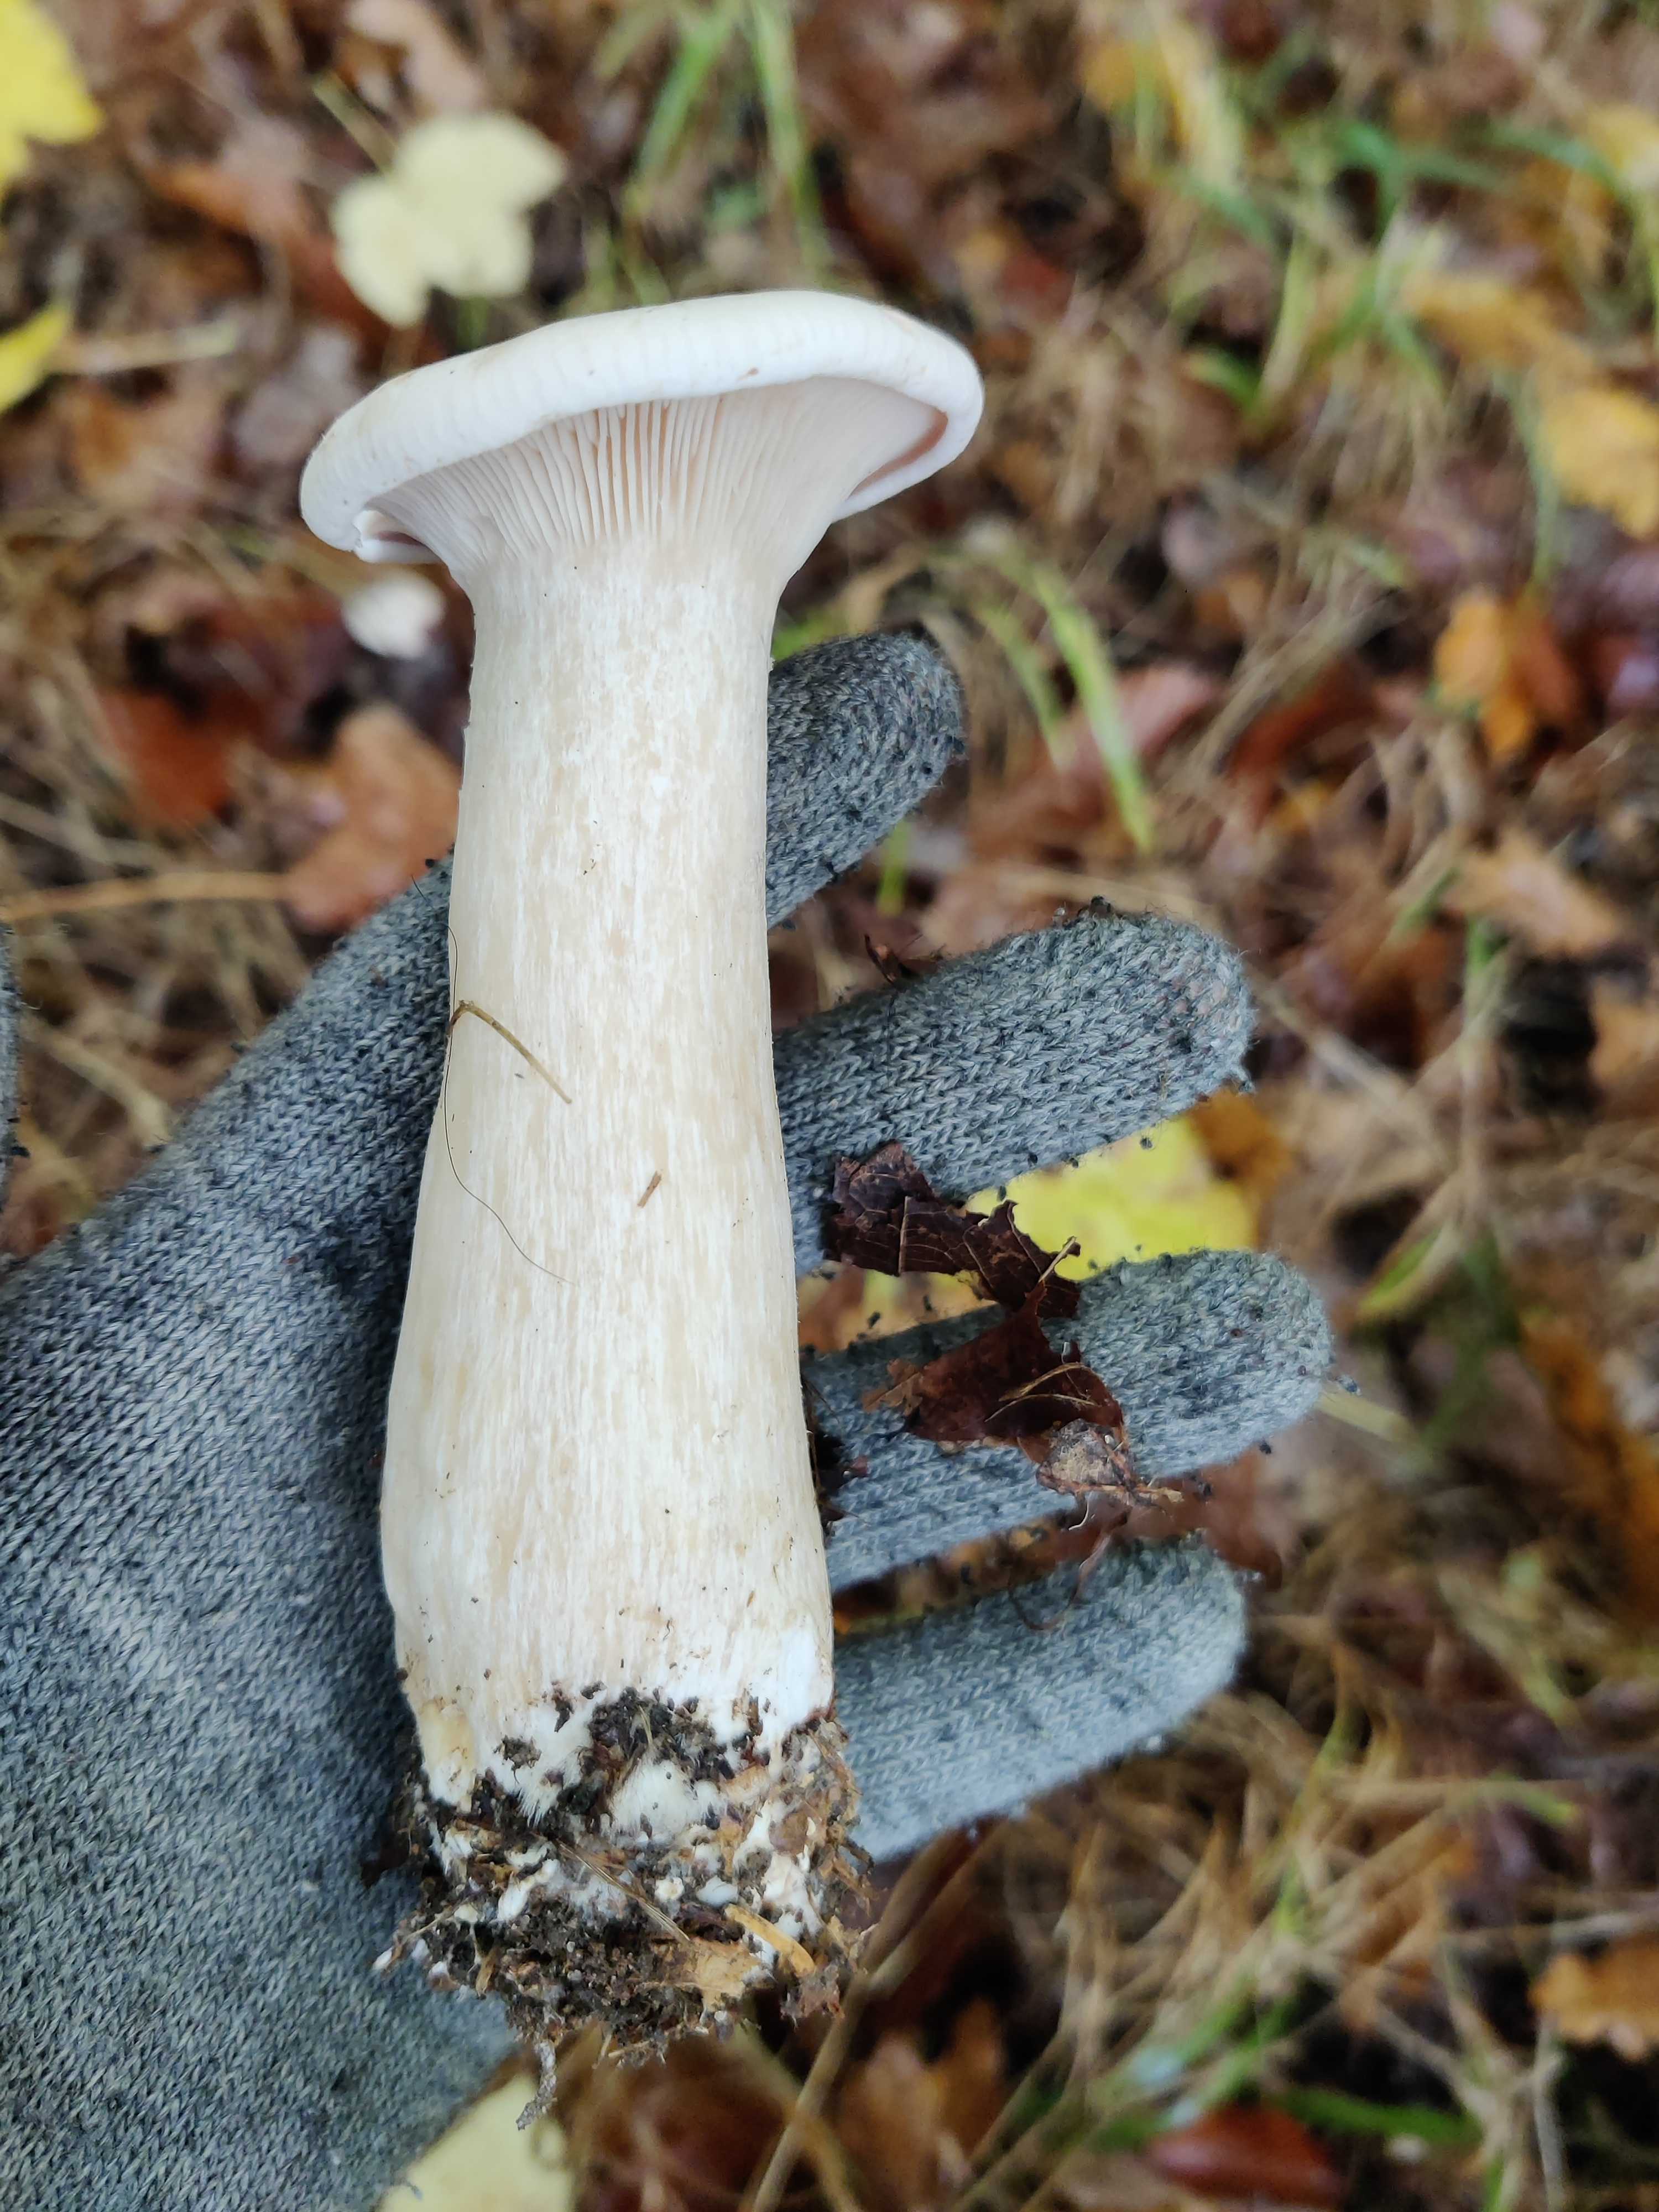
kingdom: Fungi
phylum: Basidiomycota
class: Agaricomycetes
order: Agaricales
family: Tricholomataceae
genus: Infundibulicybe
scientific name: Infundibulicybe geotropa
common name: stor tragthat
